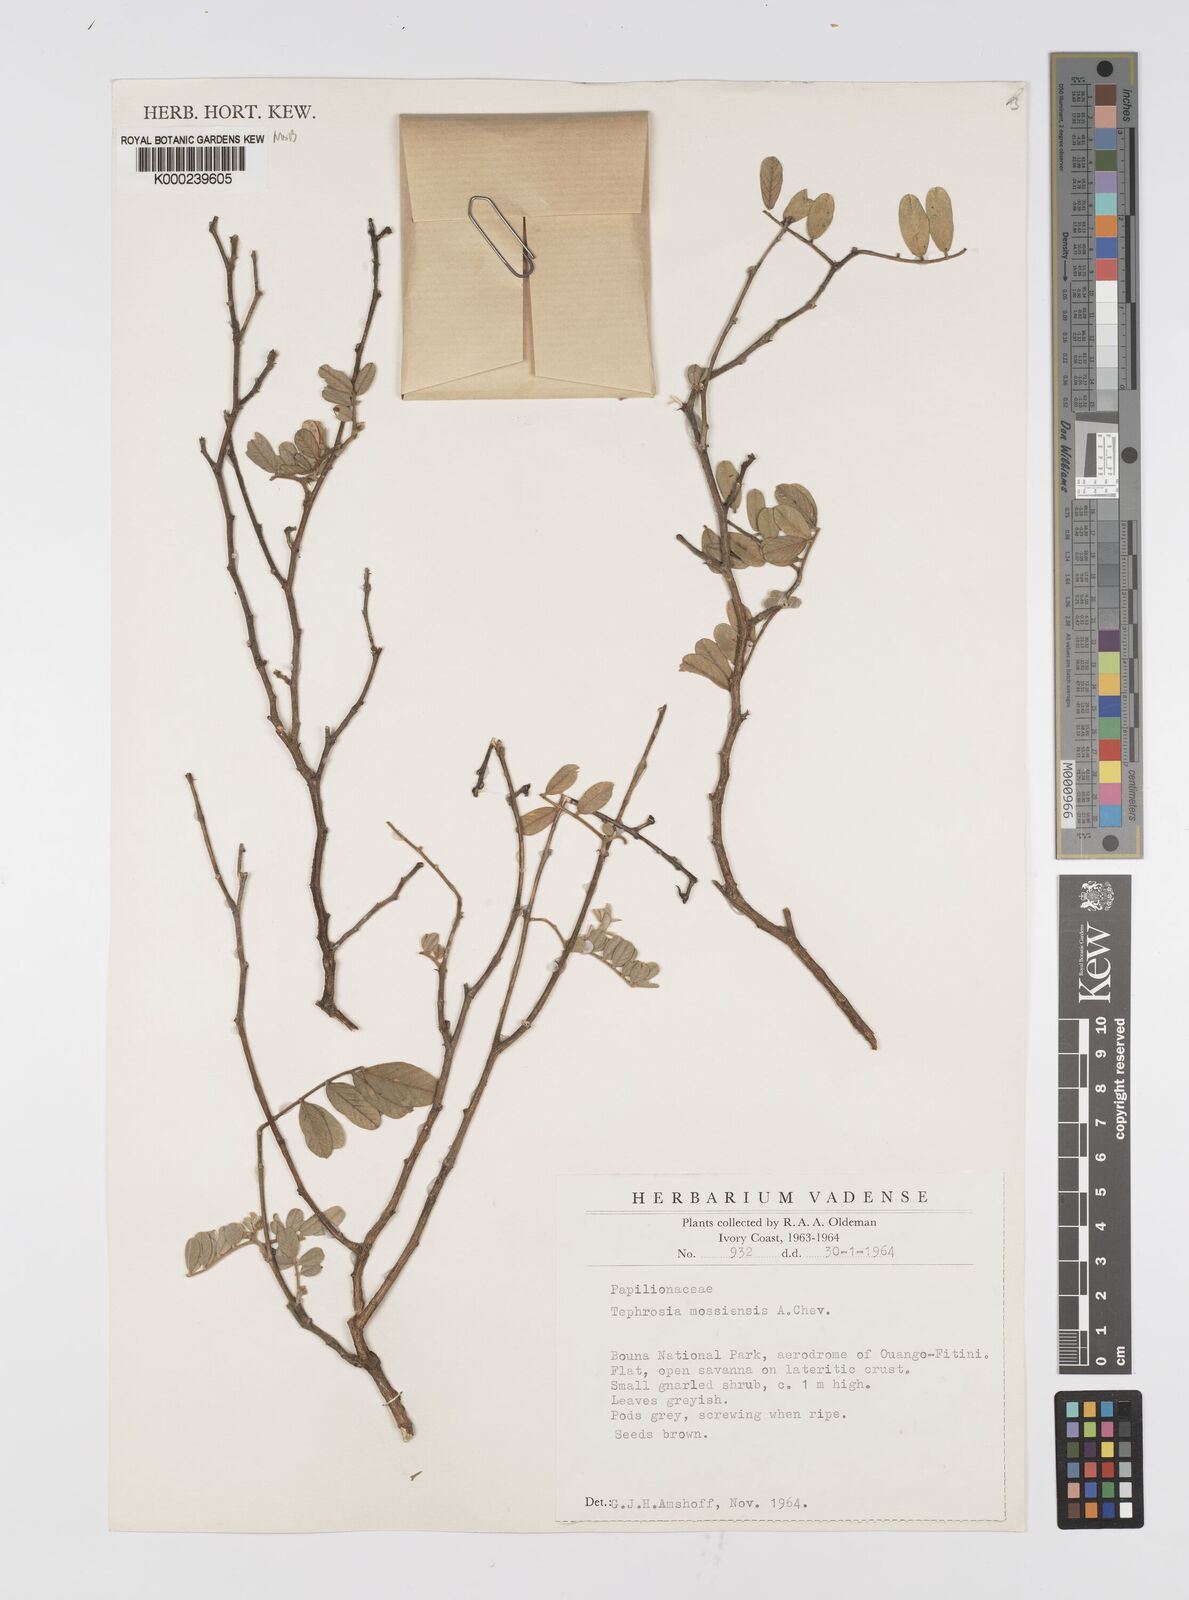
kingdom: Plantae
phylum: Tracheophyta
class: Magnoliopsida
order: Fabales
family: Fabaceae
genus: Tephrosia
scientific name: Tephrosia mossiensis
